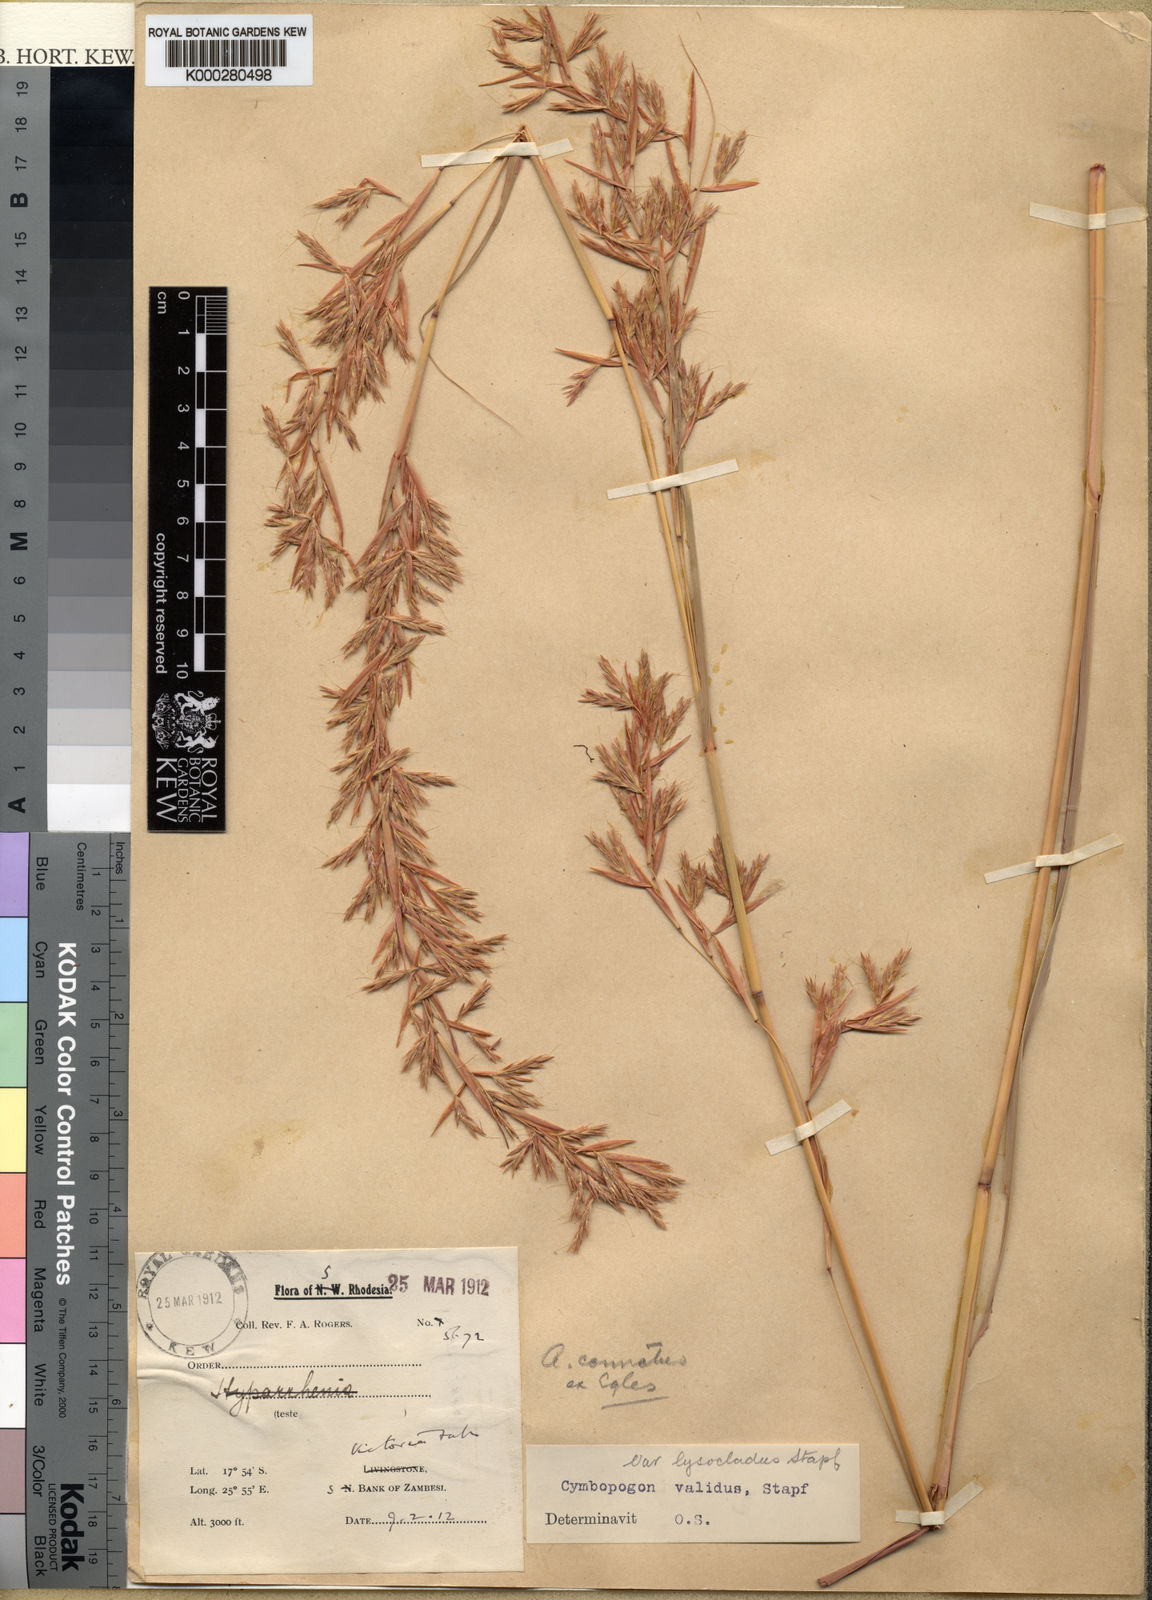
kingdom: Plantae
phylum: Tracheophyta
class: Liliopsida
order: Poales
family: Poaceae
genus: Cymbopogon
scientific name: Cymbopogon nardus
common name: Giant turpentine grass
